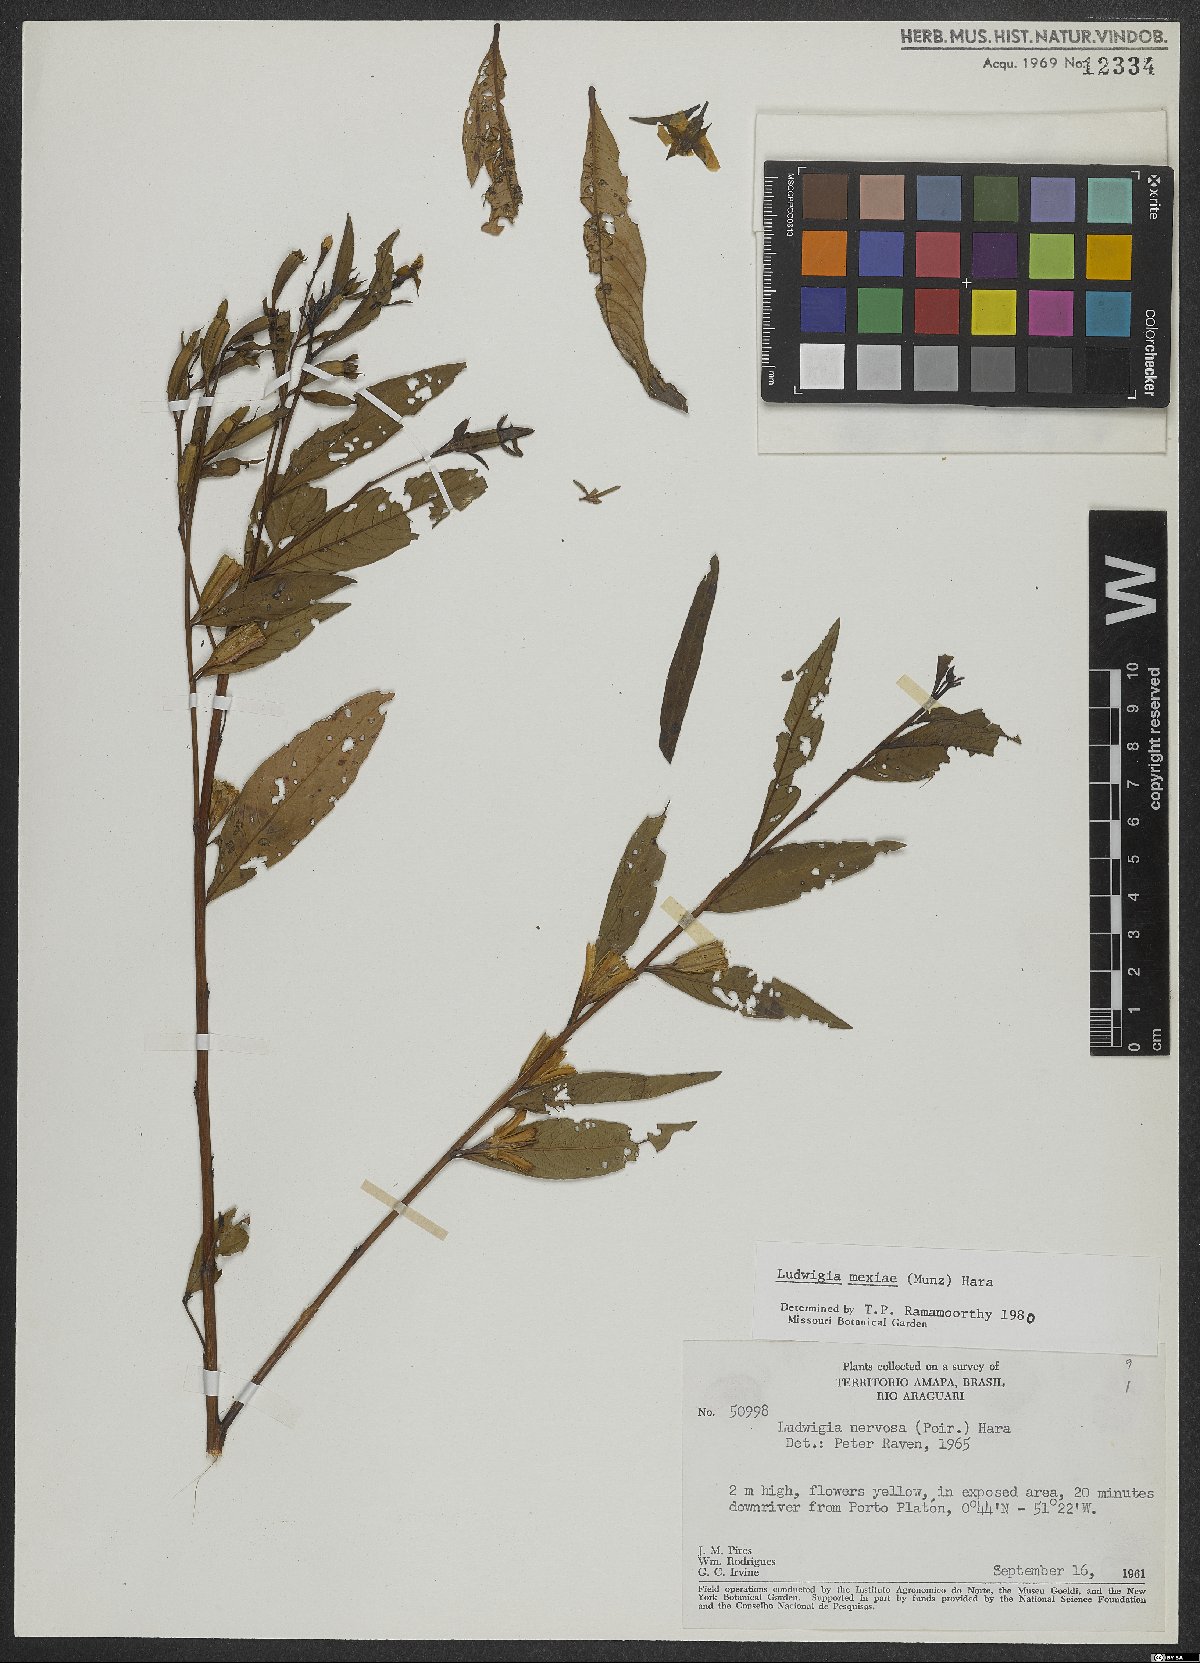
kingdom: Plantae
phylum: Tracheophyta
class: Magnoliopsida
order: Myrtales
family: Onagraceae
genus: Ludwigia
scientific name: Ludwigia nervosa
